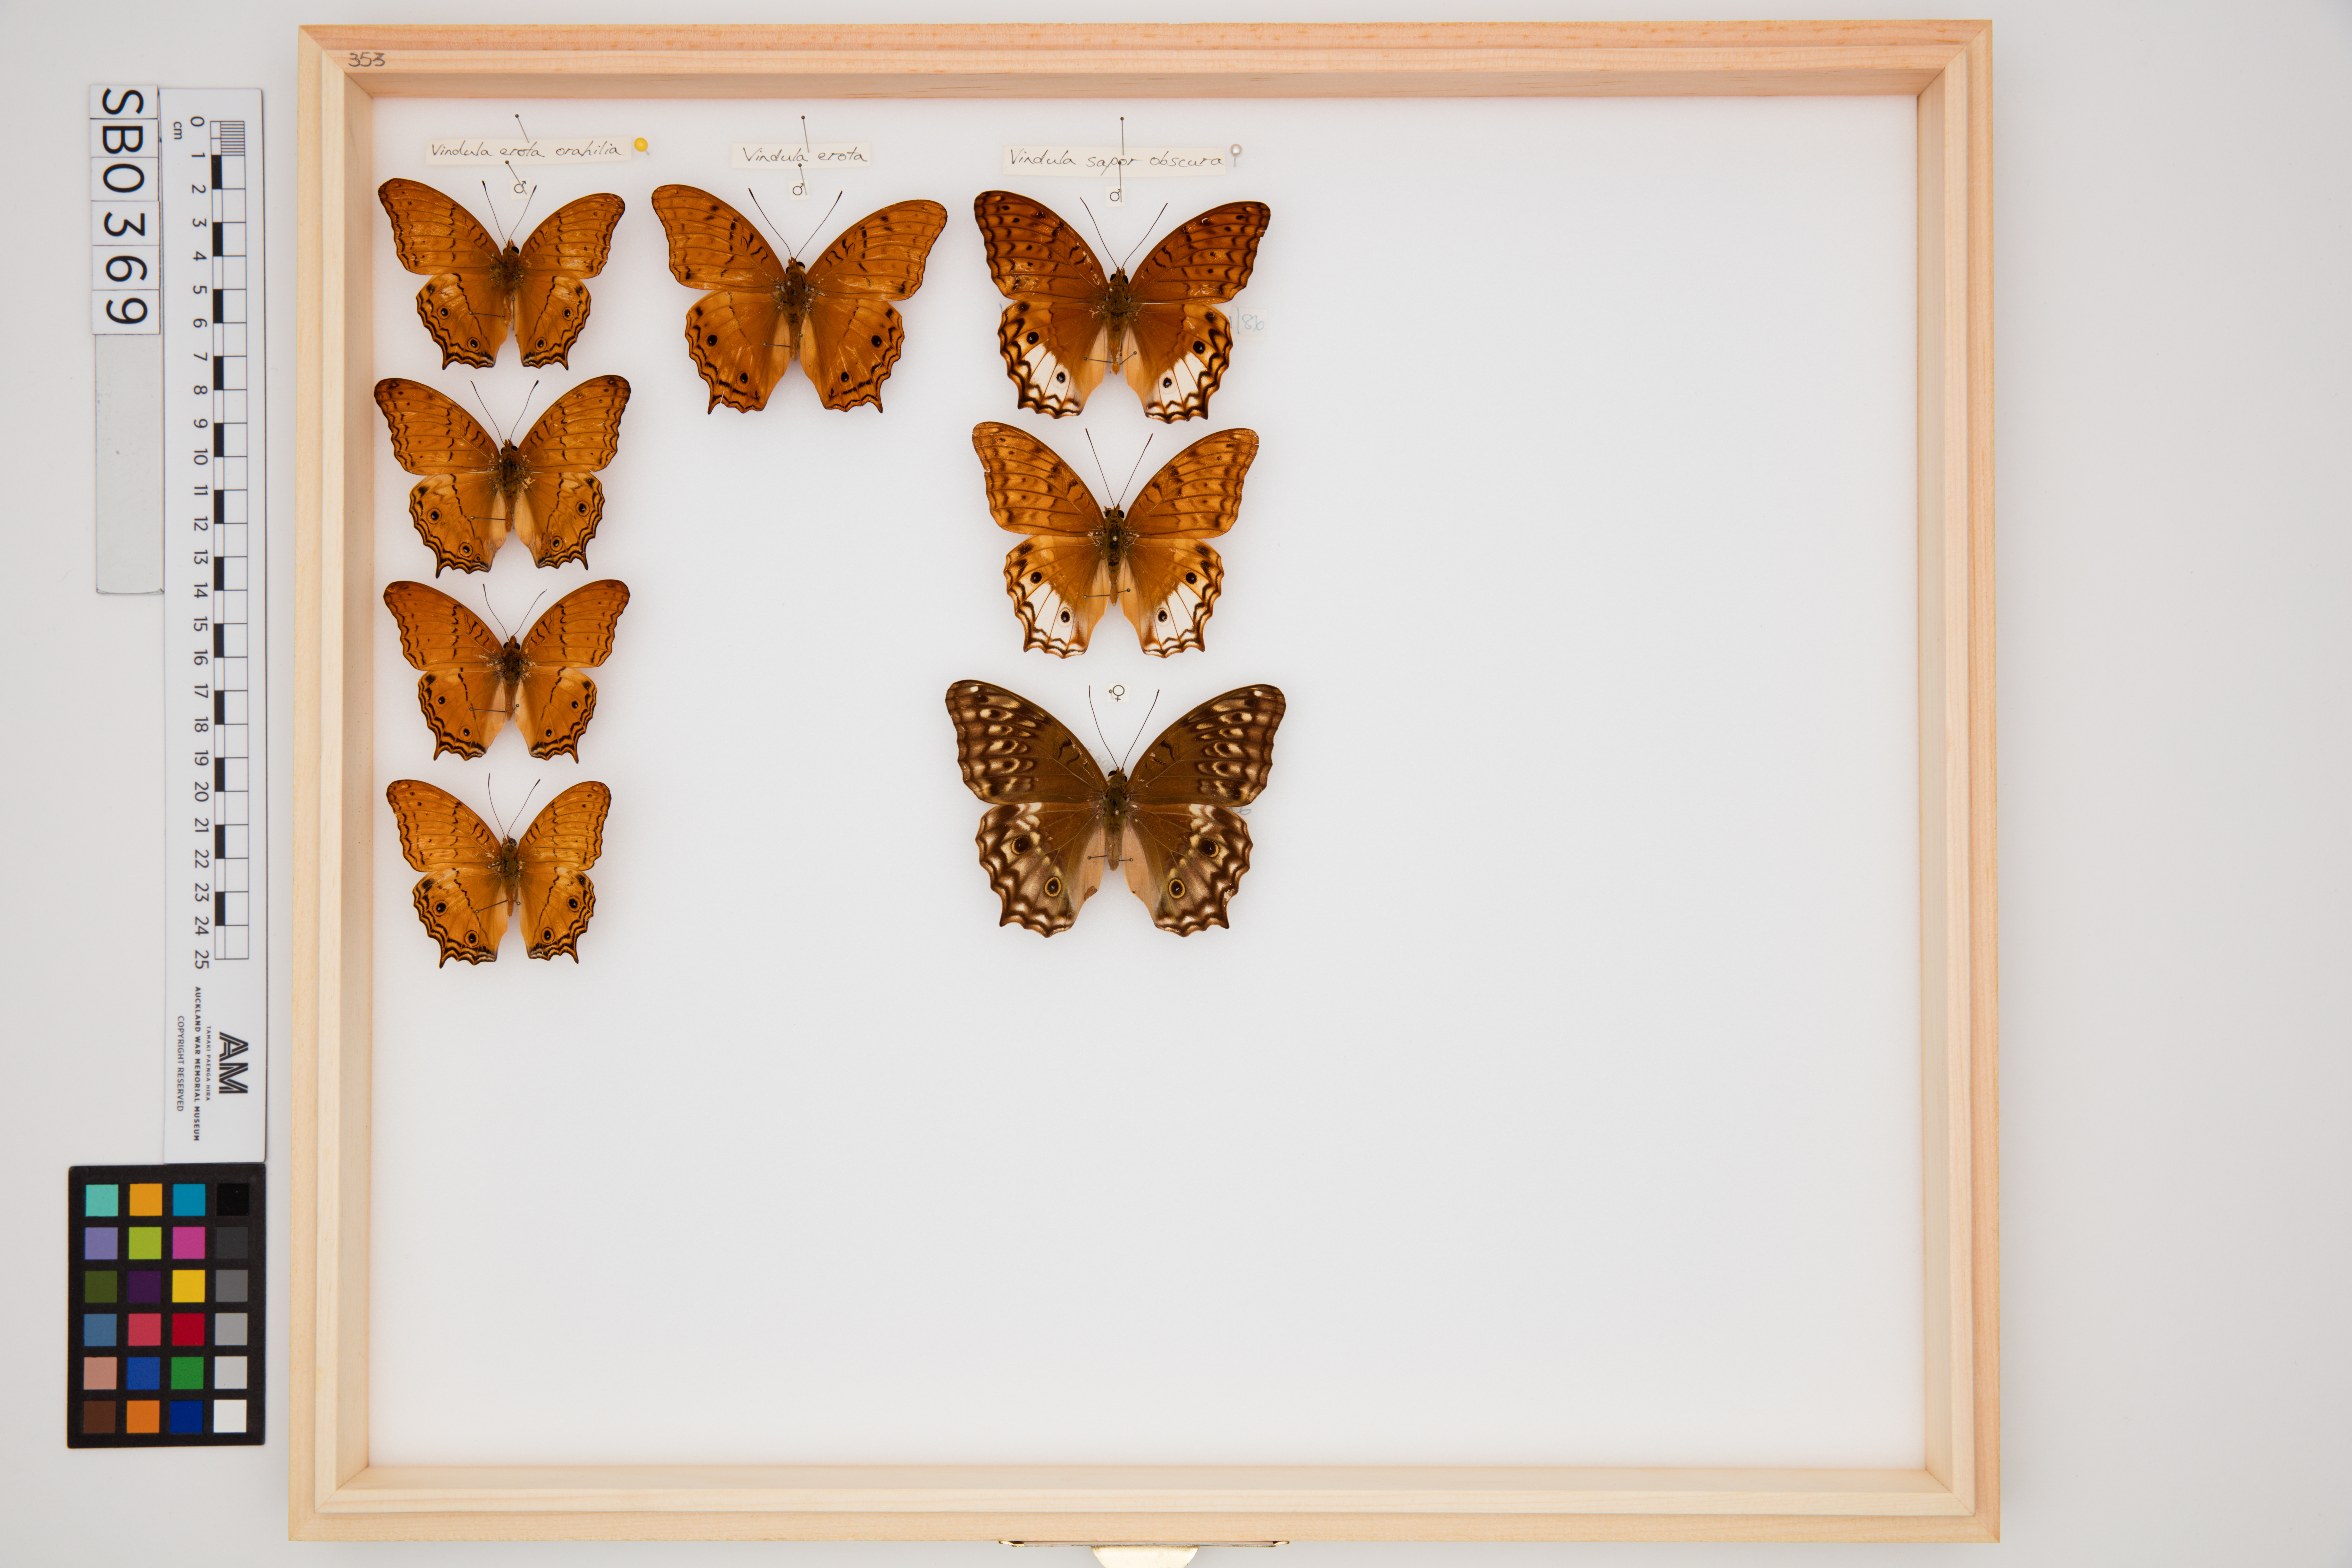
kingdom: Animalia
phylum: Arthropoda
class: Insecta
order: Lepidoptera
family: Nymphalidae
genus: Vindula
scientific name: Vindula erota
